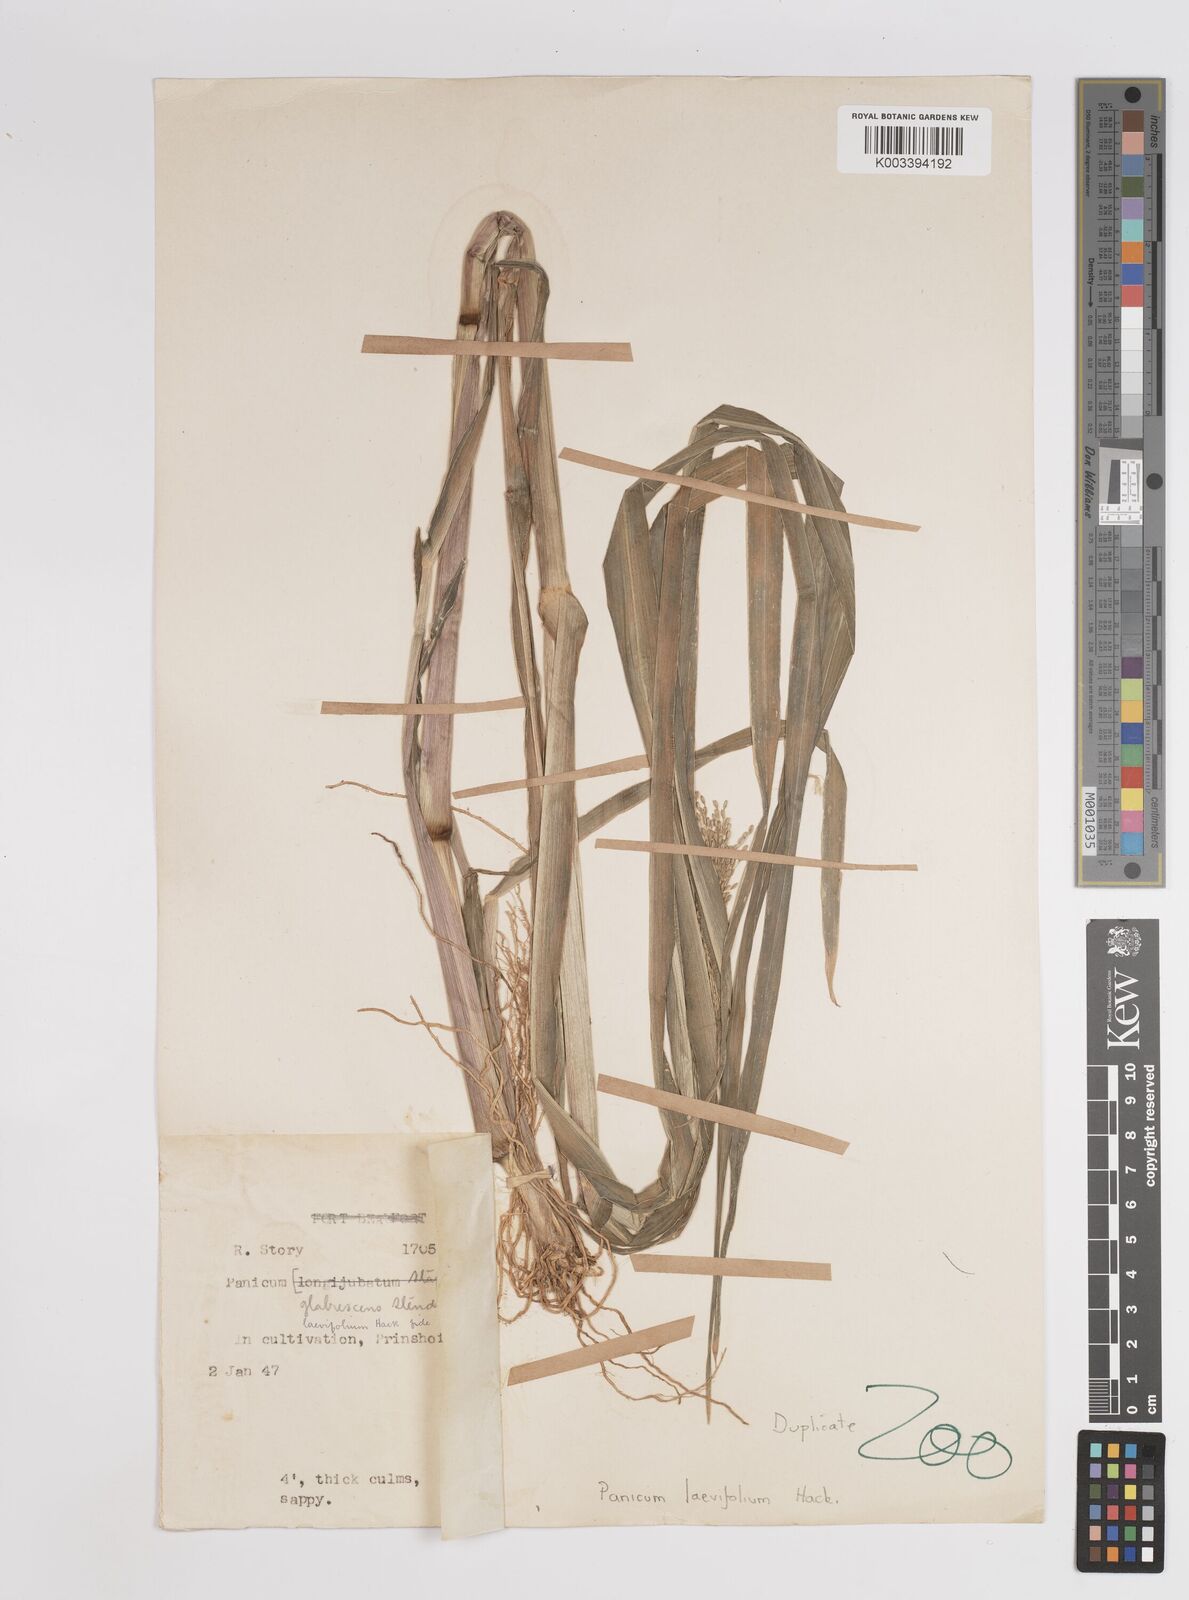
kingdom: Plantae
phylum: Tracheophyta
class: Liliopsida
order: Poales
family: Poaceae
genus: Panicum
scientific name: Panicum schinzii
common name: Sweet grass
